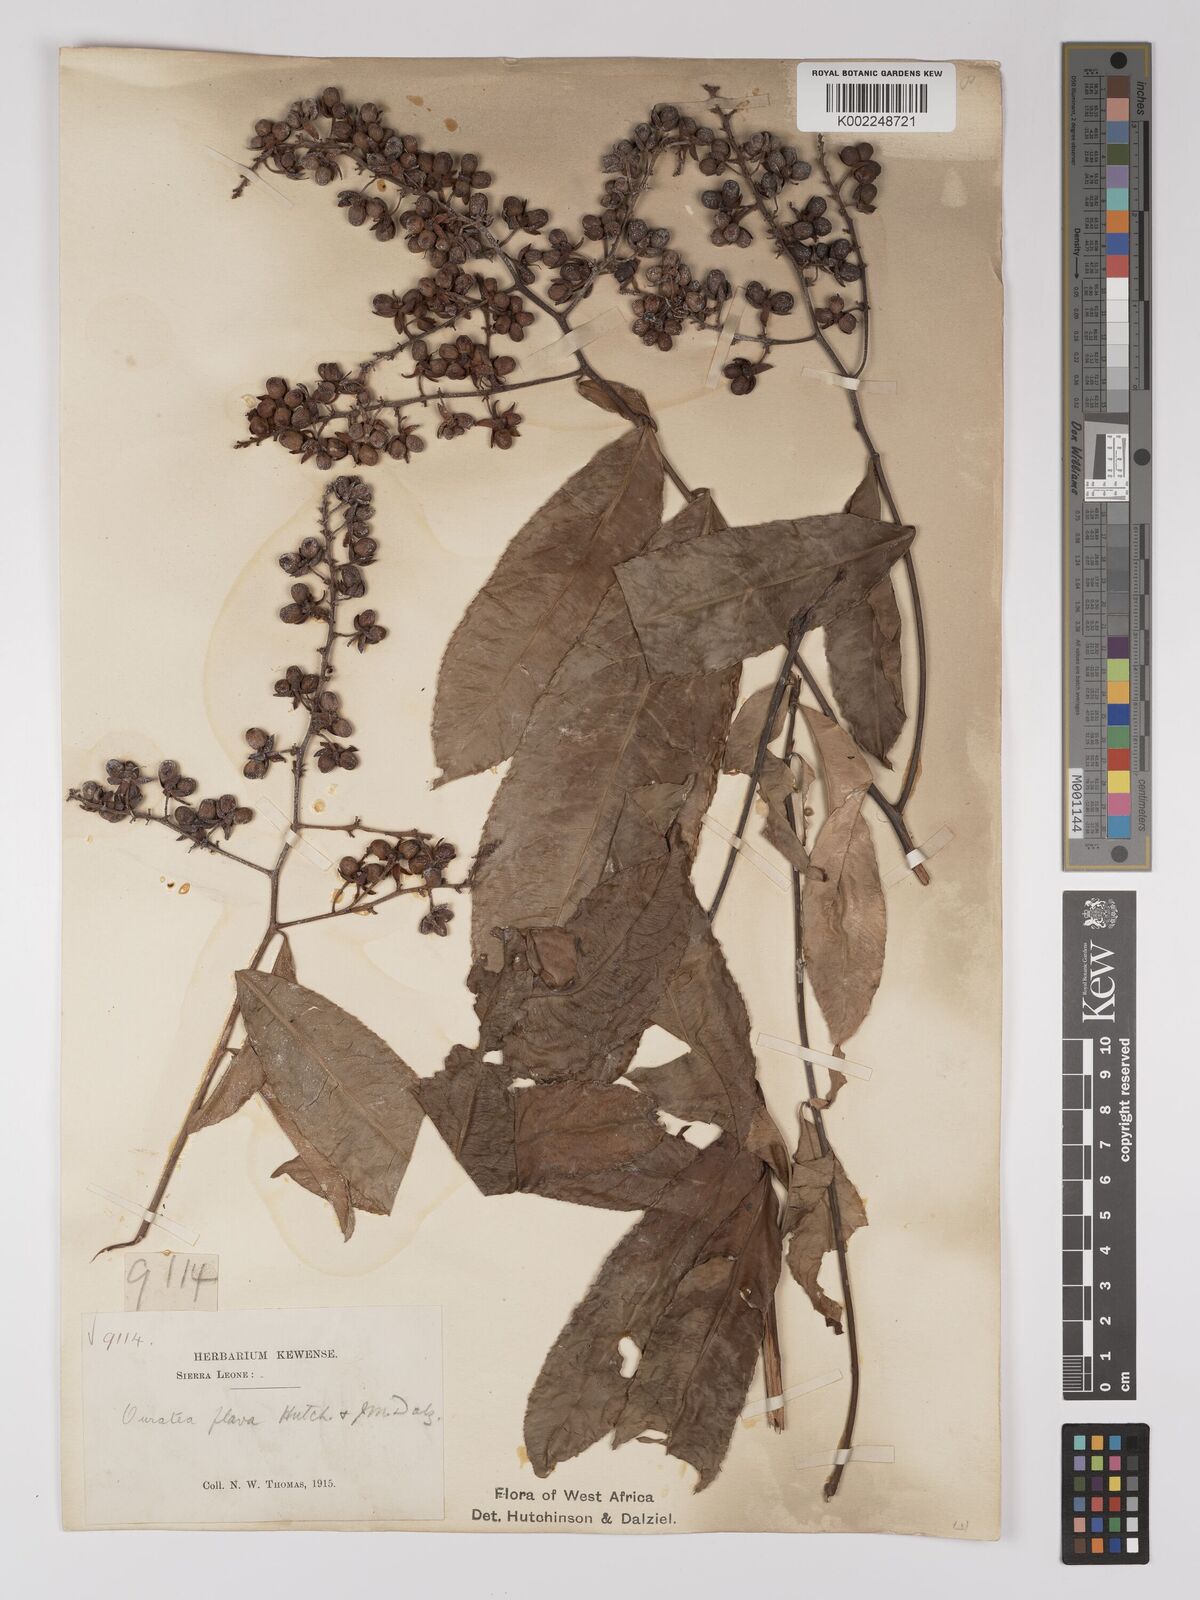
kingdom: Plantae
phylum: Tracheophyta
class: Magnoliopsida
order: Malpighiales
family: Ochnaceae
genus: Campylospermum
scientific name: Campylospermum flavum
